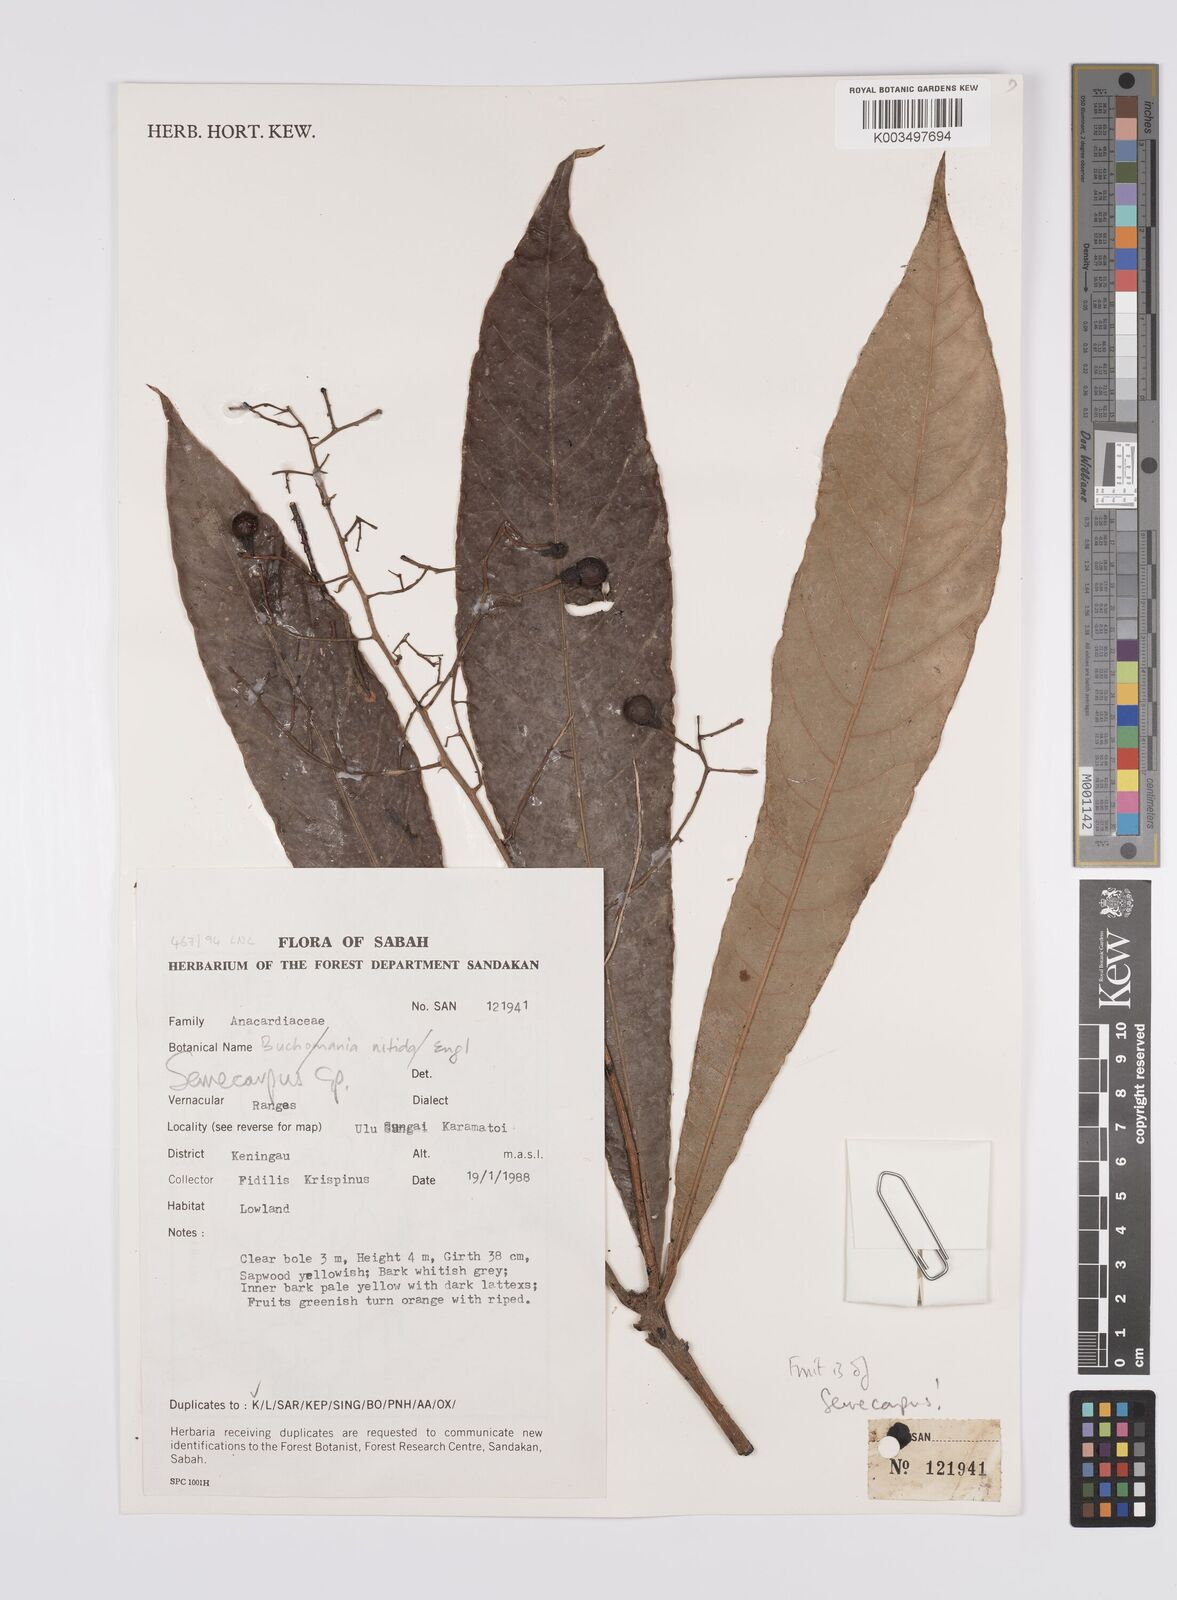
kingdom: Plantae
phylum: Tracheophyta
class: Magnoliopsida
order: Sapindales
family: Anacardiaceae
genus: Semecarpus
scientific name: Semecarpus
